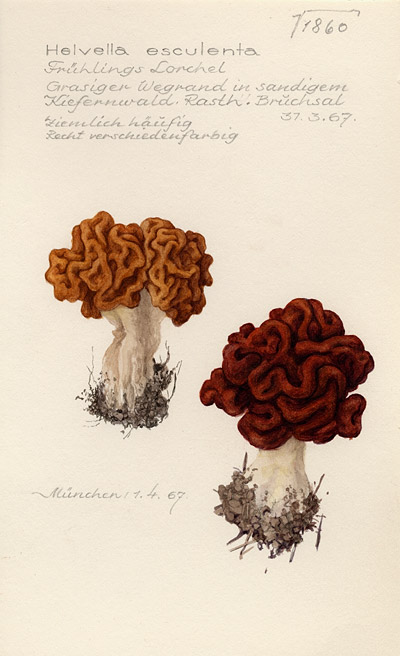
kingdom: Fungi
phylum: Ascomycota
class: Pezizomycetes
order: Pezizales
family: Discinaceae
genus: Gyromitra
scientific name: Gyromitra esculenta
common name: False morel
